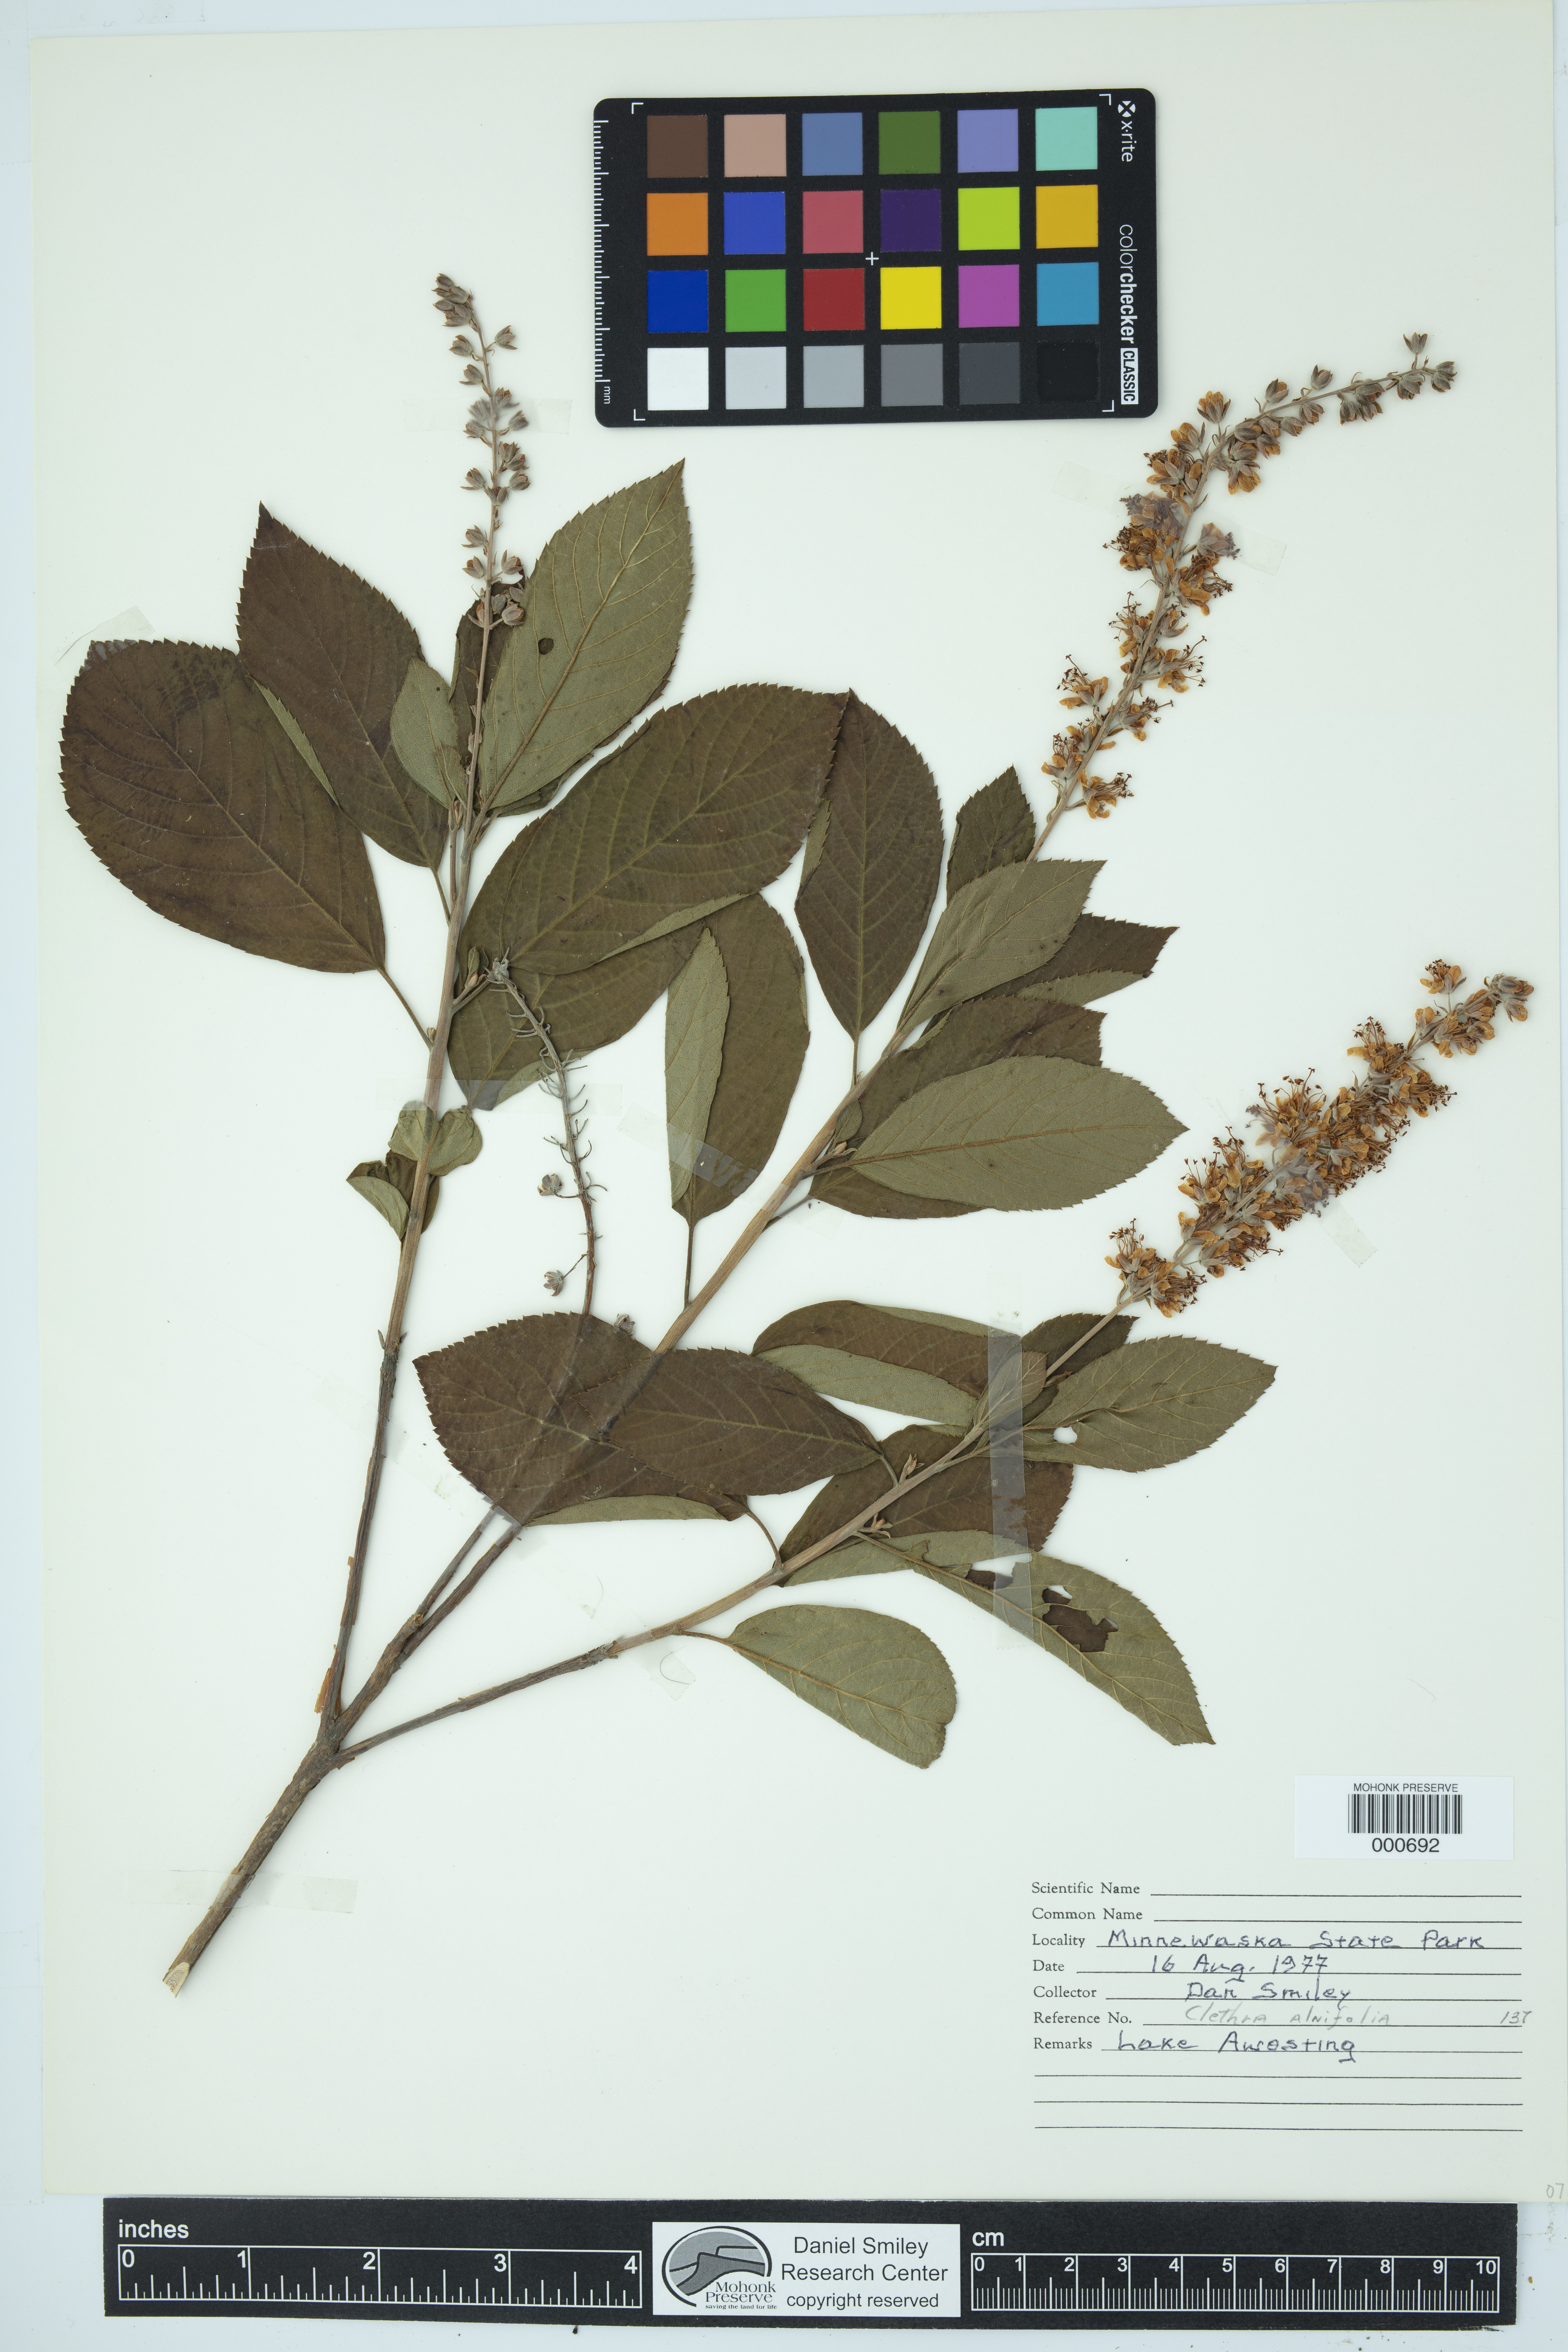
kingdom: Plantae
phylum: Tracheophyta
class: Magnoliopsida
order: Ericales
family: Clethraceae
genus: Clethra
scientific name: Clethra alnifolia
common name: Sweet pepperbush
